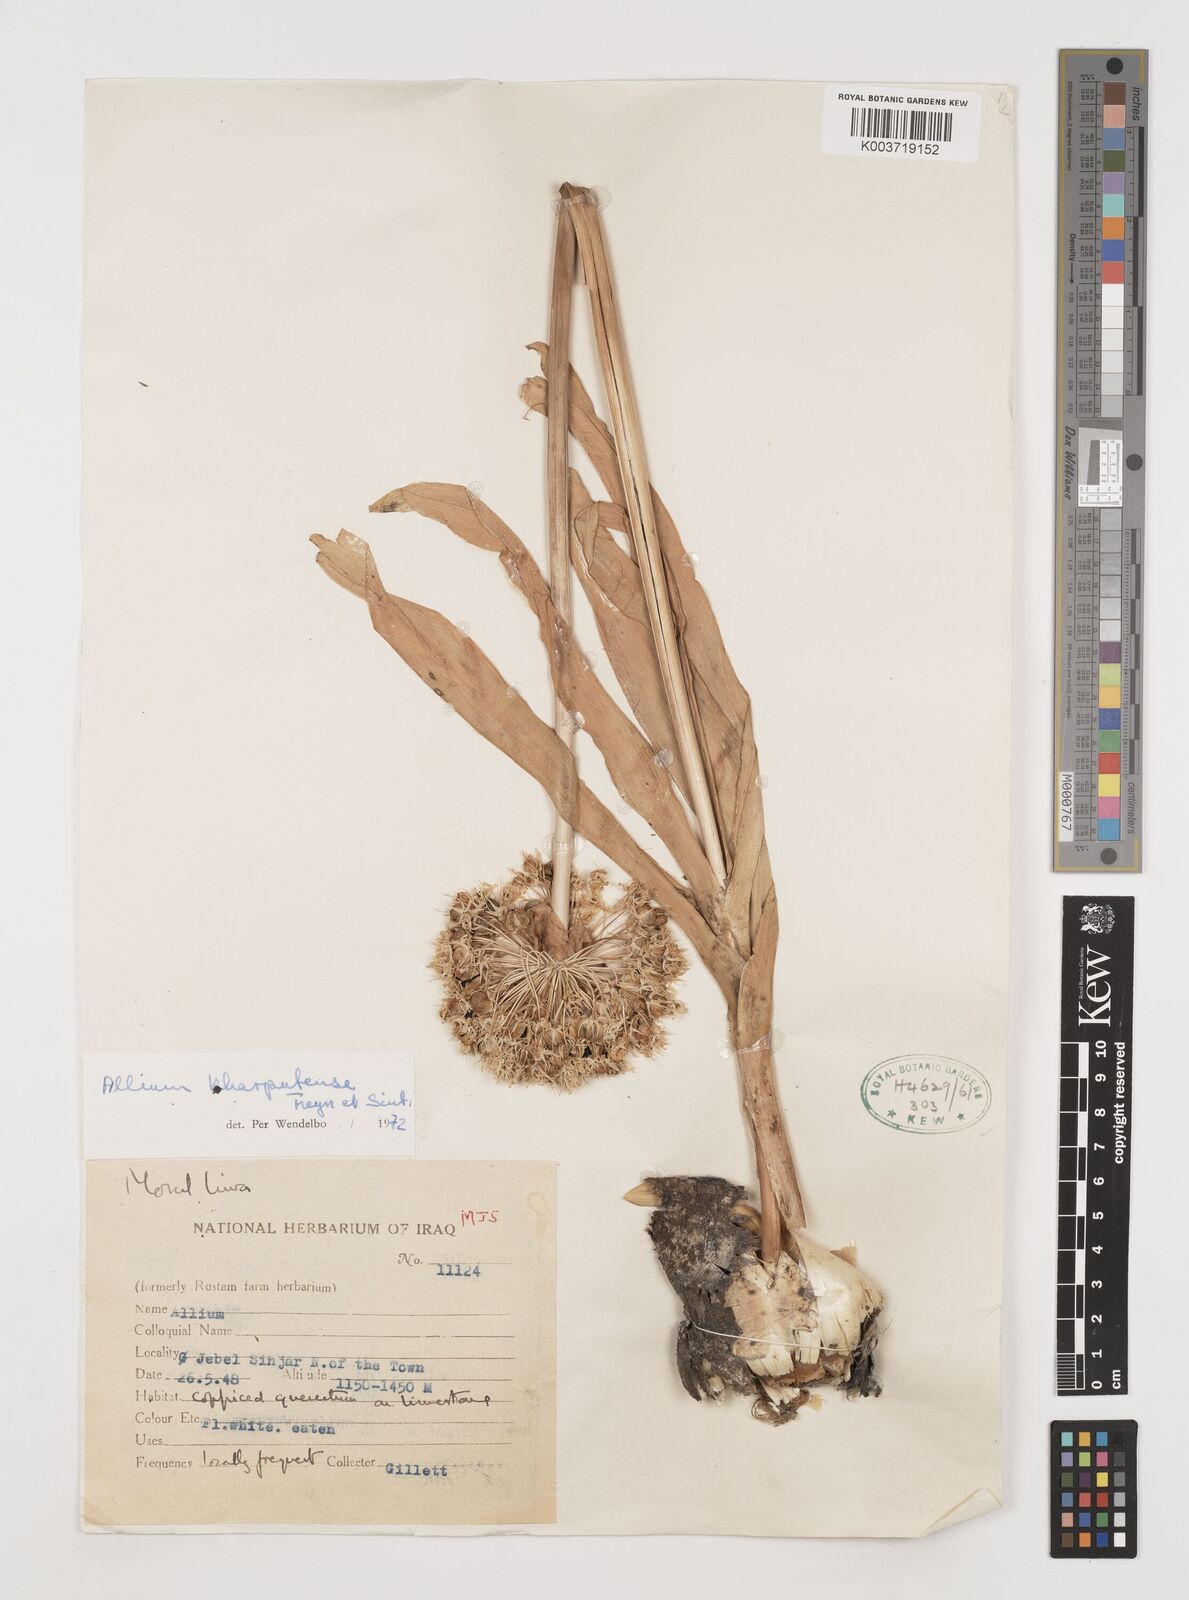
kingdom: Plantae
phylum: Tracheophyta
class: Liliopsida
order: Asparagales
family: Amaryllidaceae
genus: Allium
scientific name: Allium kharputense
